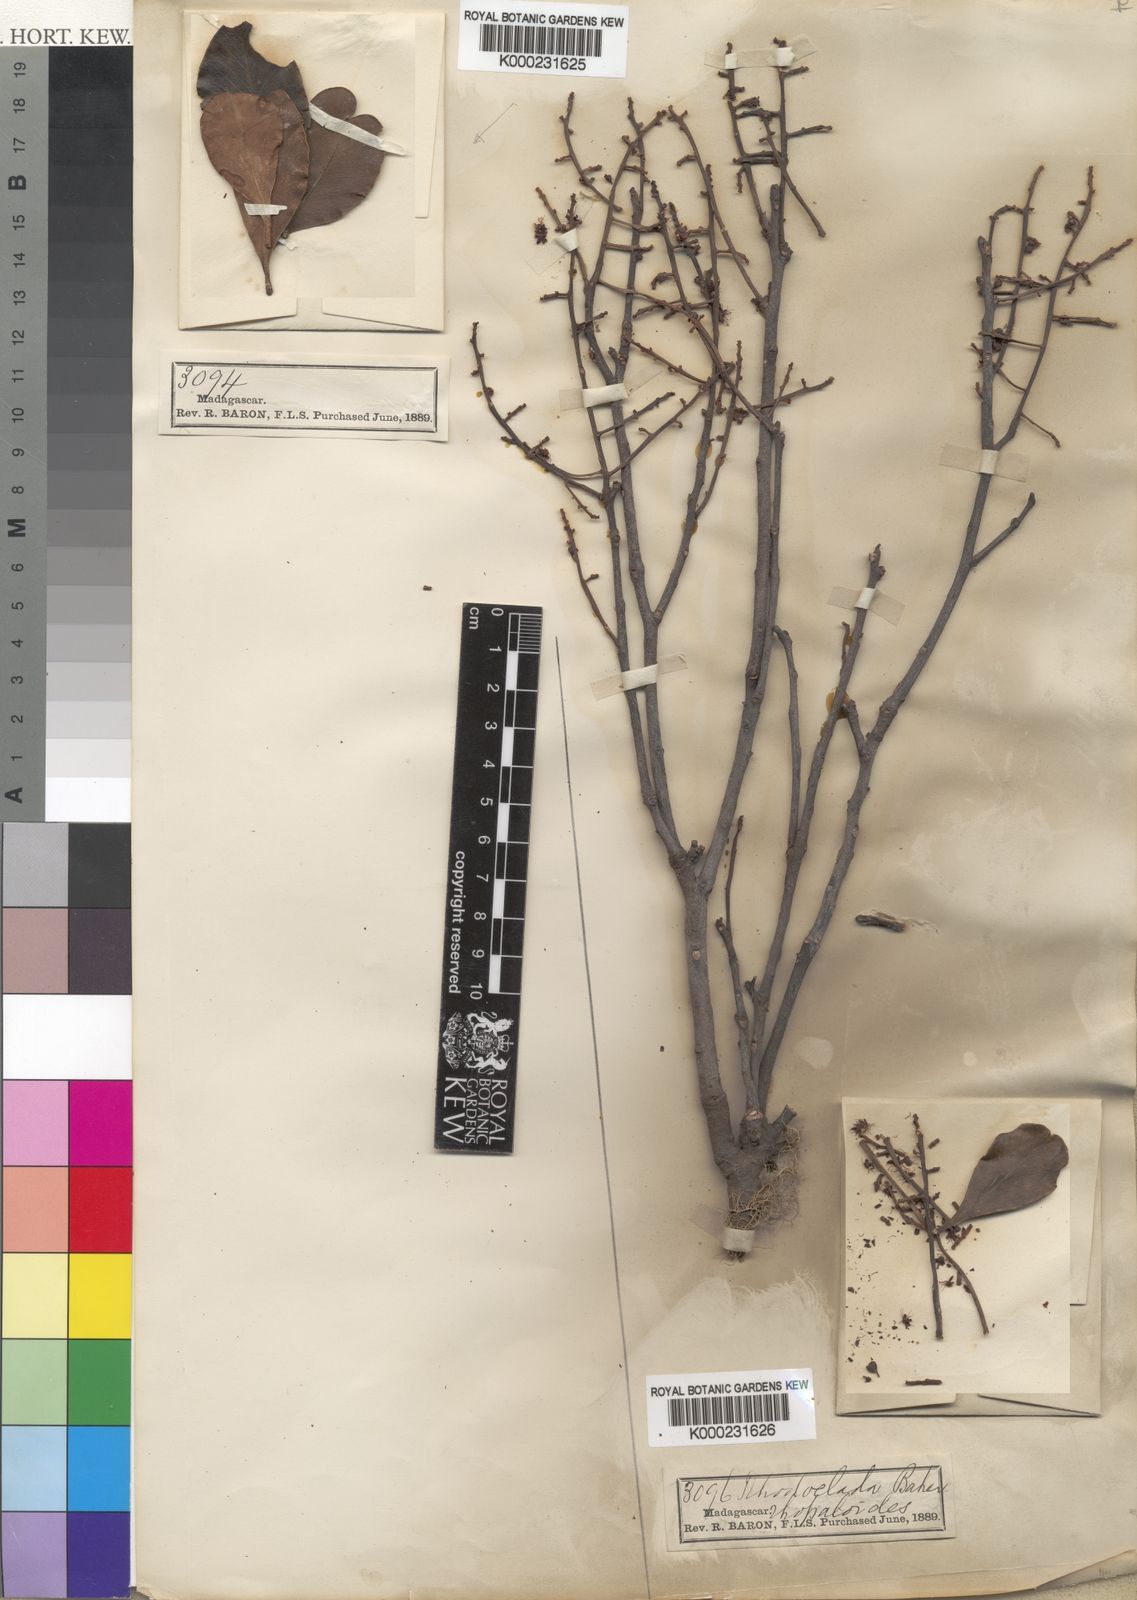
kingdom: Plantae
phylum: Tracheophyta
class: Magnoliopsida
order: Caryophyllales
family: Asteropeiaceae
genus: Asteropeia
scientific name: Asteropeia rhopaloides
